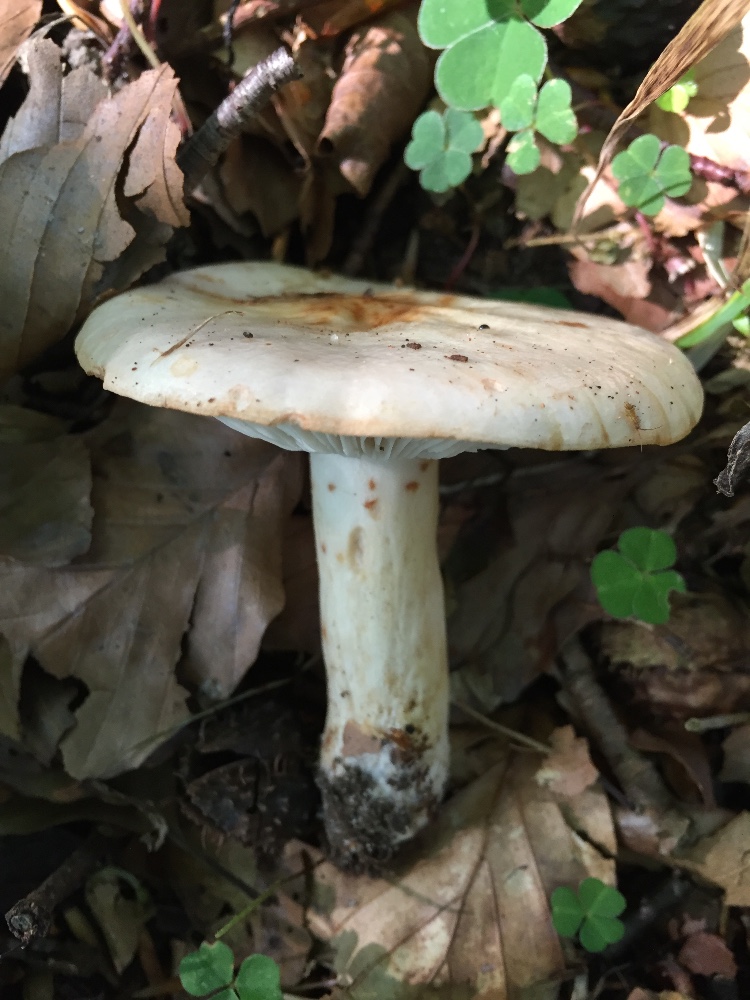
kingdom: Fungi
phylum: Basidiomycota
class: Agaricomycetes
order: Russulales
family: Russulaceae
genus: Lactarius
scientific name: Lactarius pallidus
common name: bleg mælkehat
